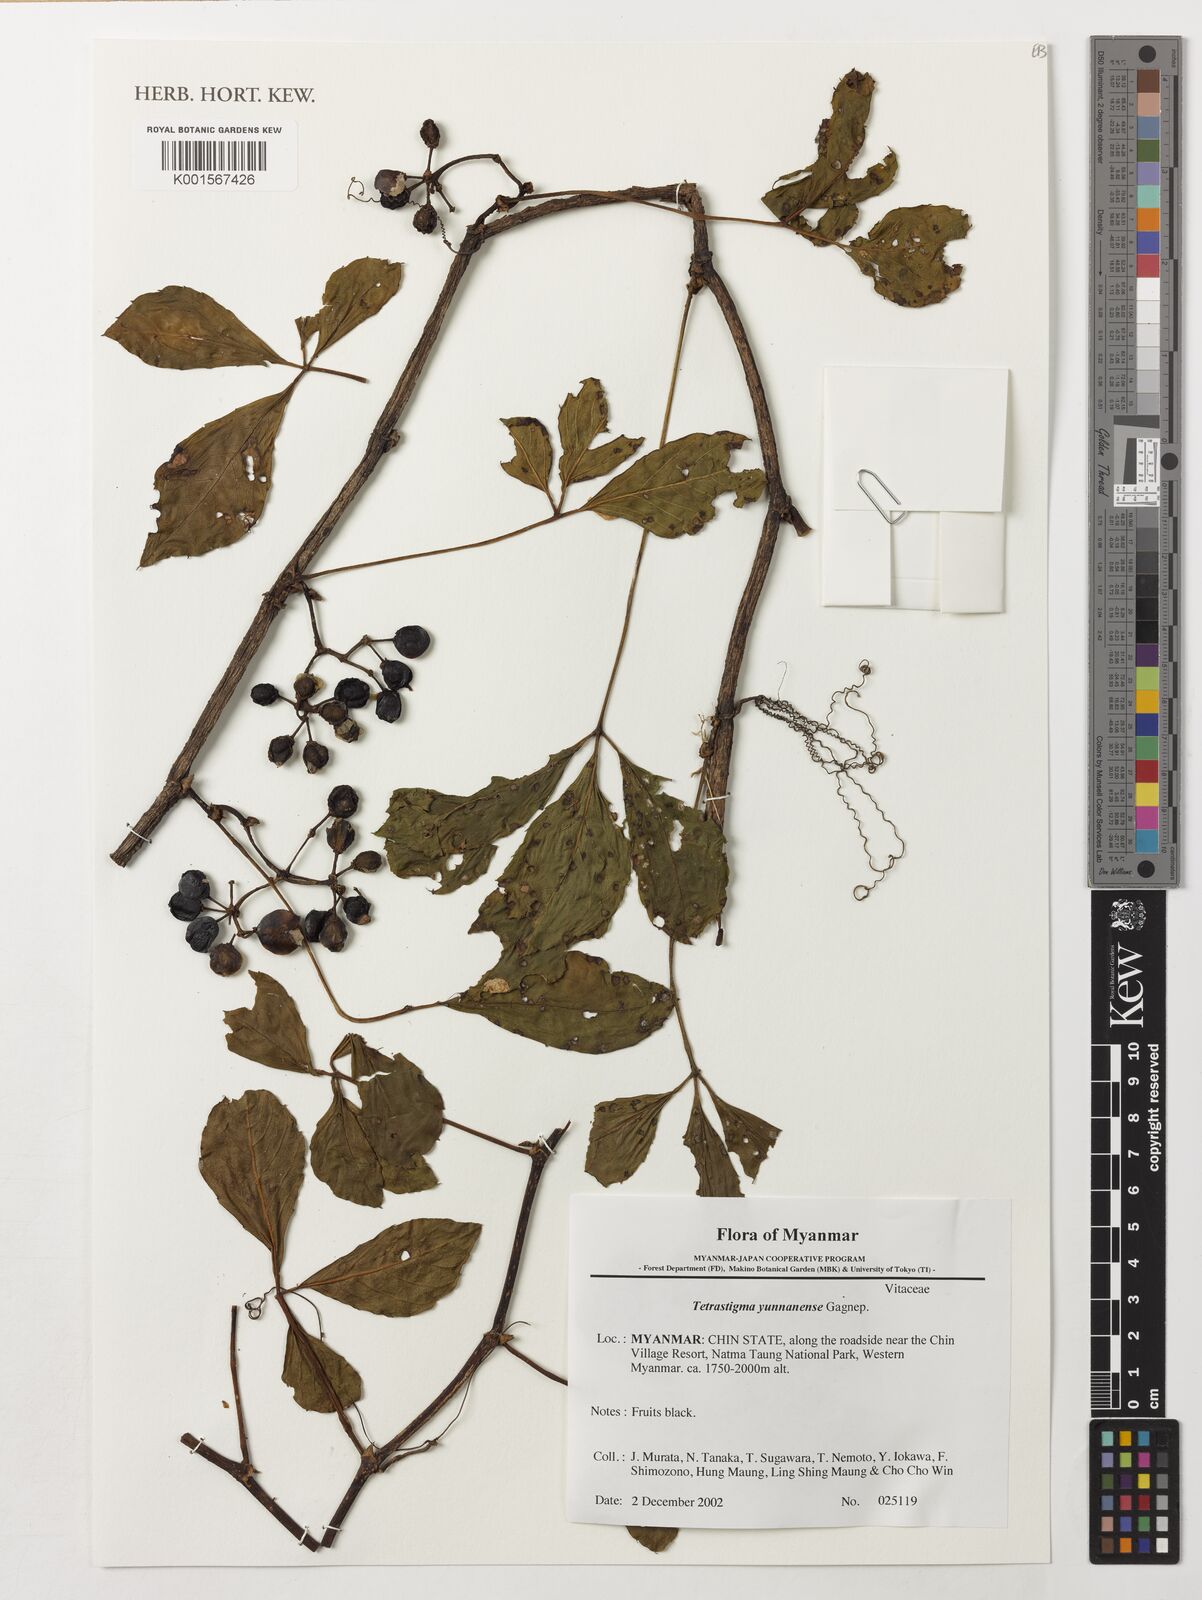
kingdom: Plantae
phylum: Tracheophyta
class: Magnoliopsida
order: Vitales
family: Vitaceae
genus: Tetrastigma
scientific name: Tetrastigma yunnanense
